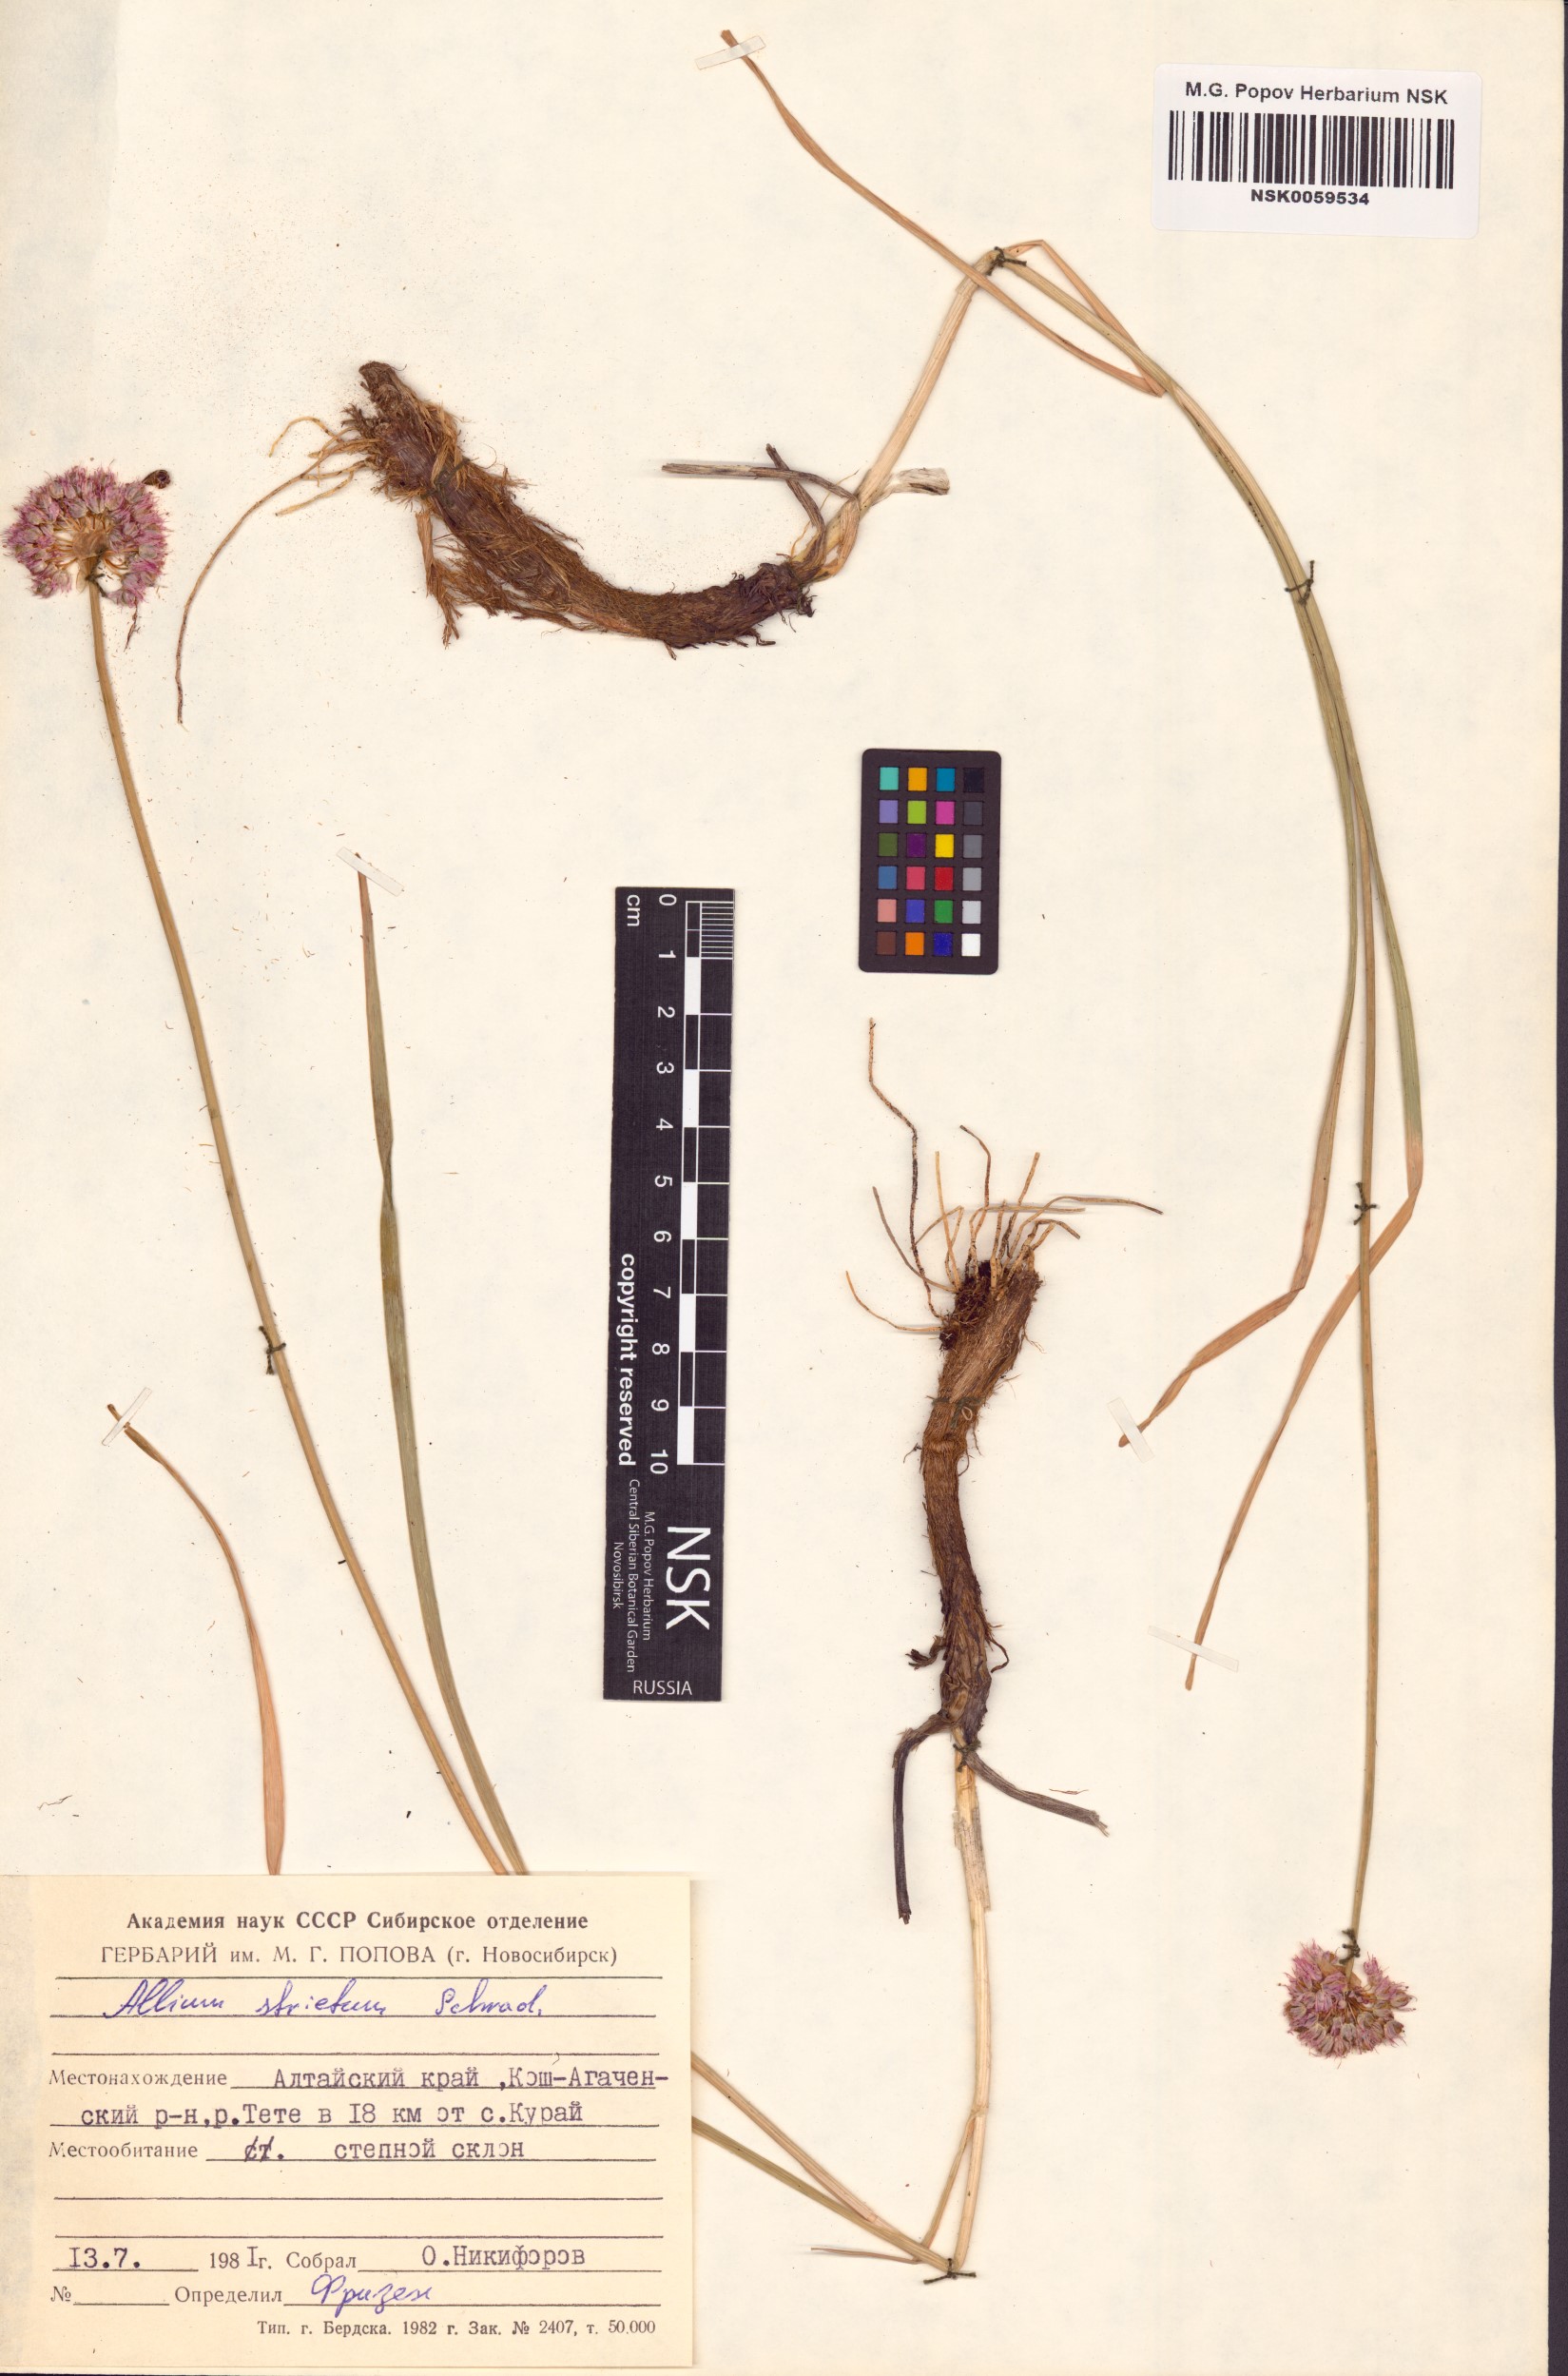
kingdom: Plantae
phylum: Tracheophyta
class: Liliopsida
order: Asparagales
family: Amaryllidaceae
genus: Allium
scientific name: Allium strictum
